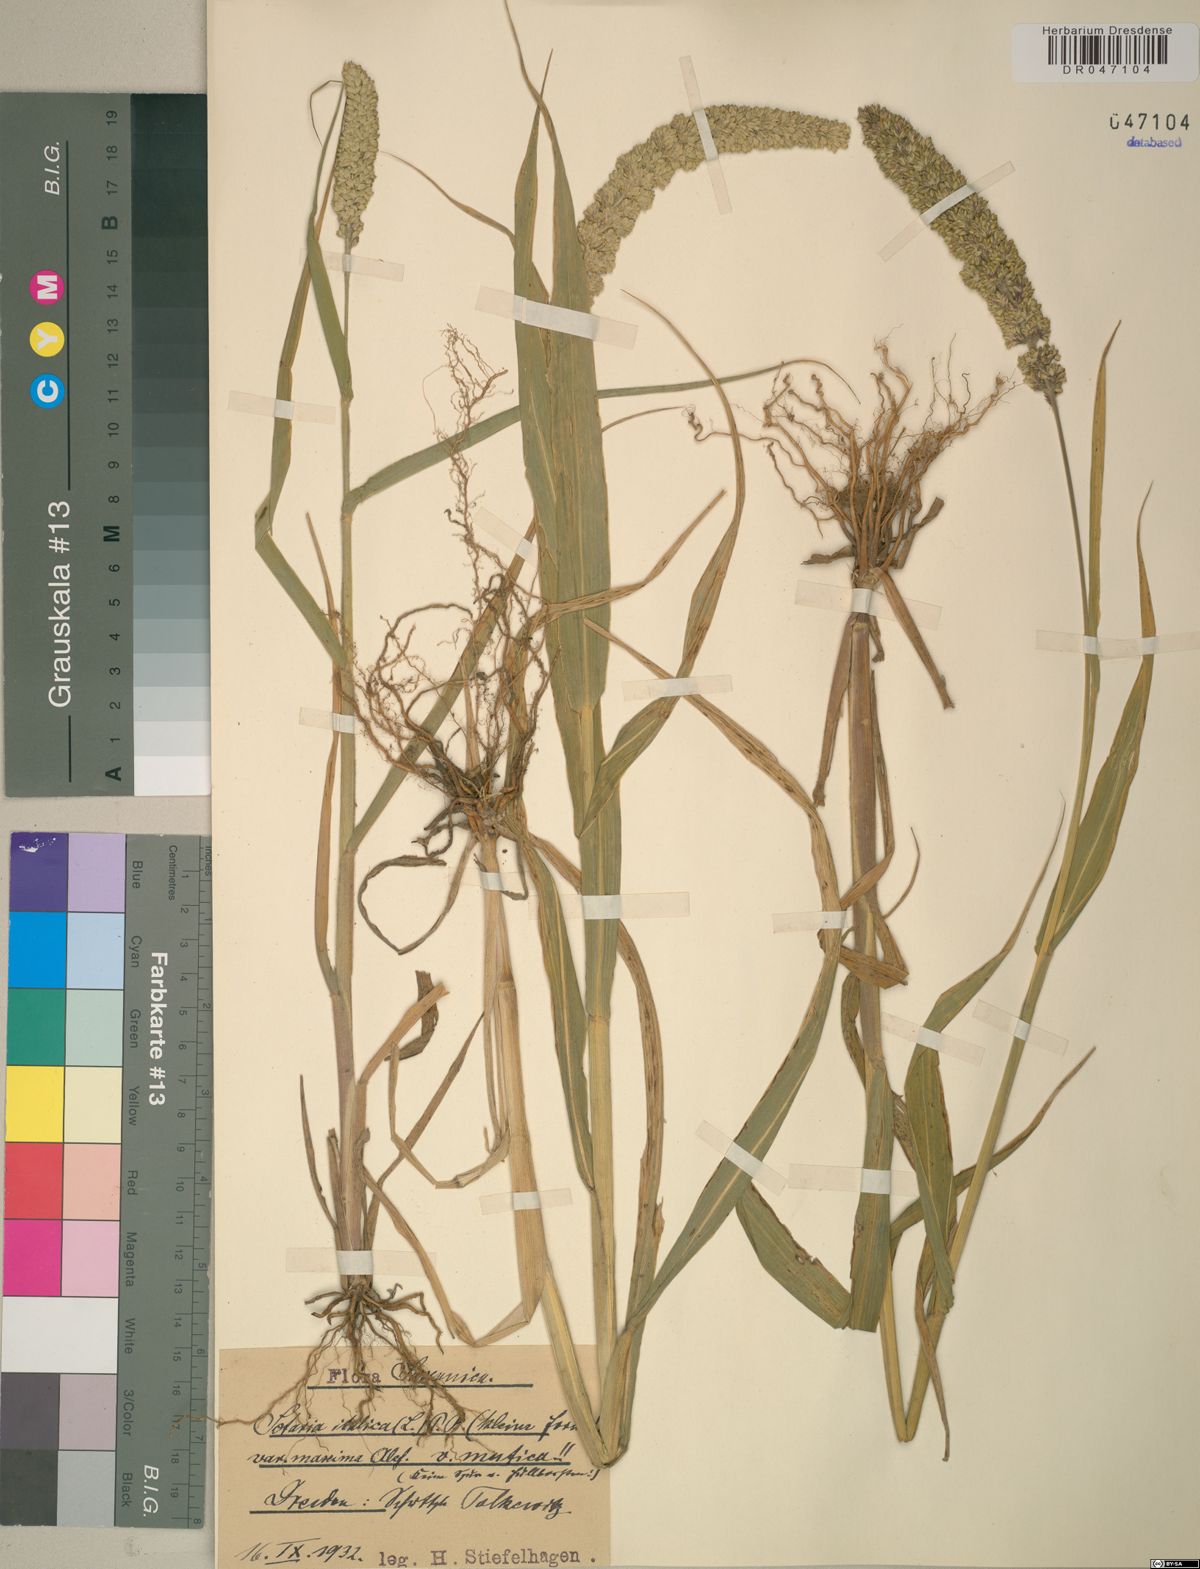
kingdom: Plantae
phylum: Tracheophyta
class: Liliopsida
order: Poales
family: Poaceae
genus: Setaria
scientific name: Setaria italica
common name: Foxtail bristle-grass
